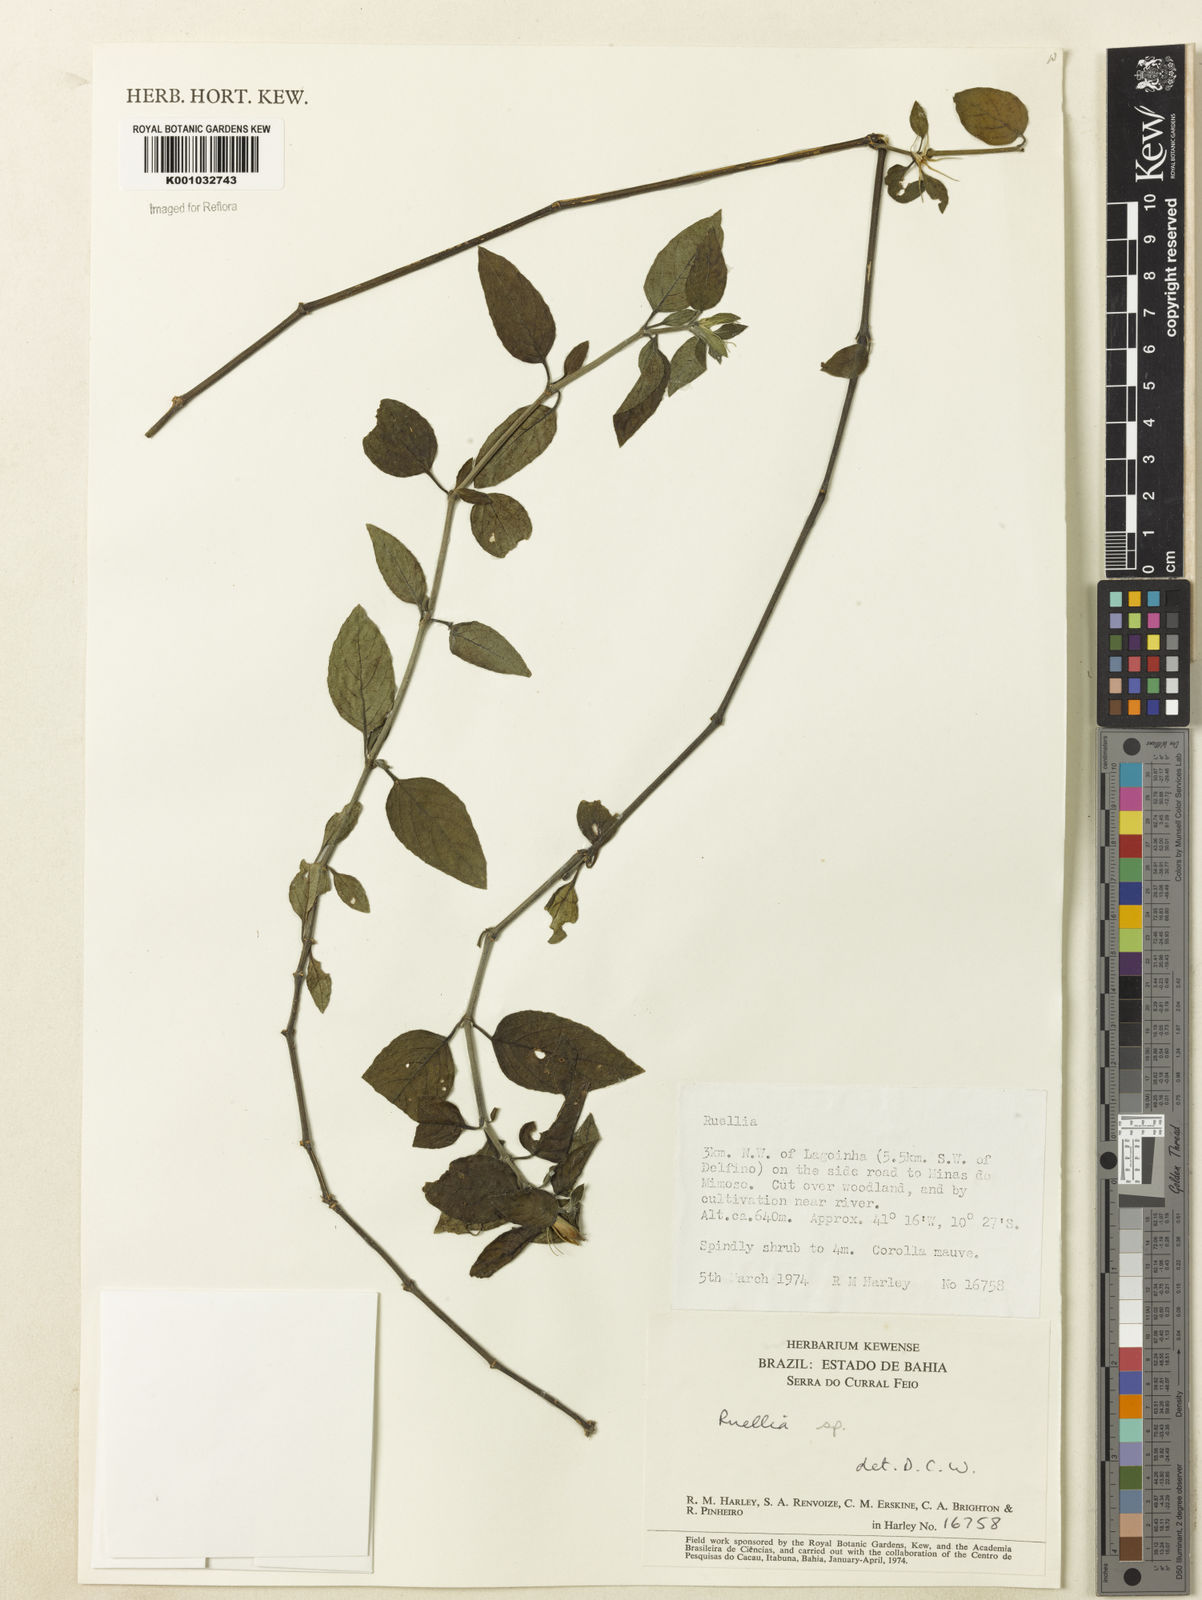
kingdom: Plantae
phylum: Tracheophyta
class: Magnoliopsida
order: Lamiales
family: Acanthaceae
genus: Ruellia
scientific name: Ruellia
